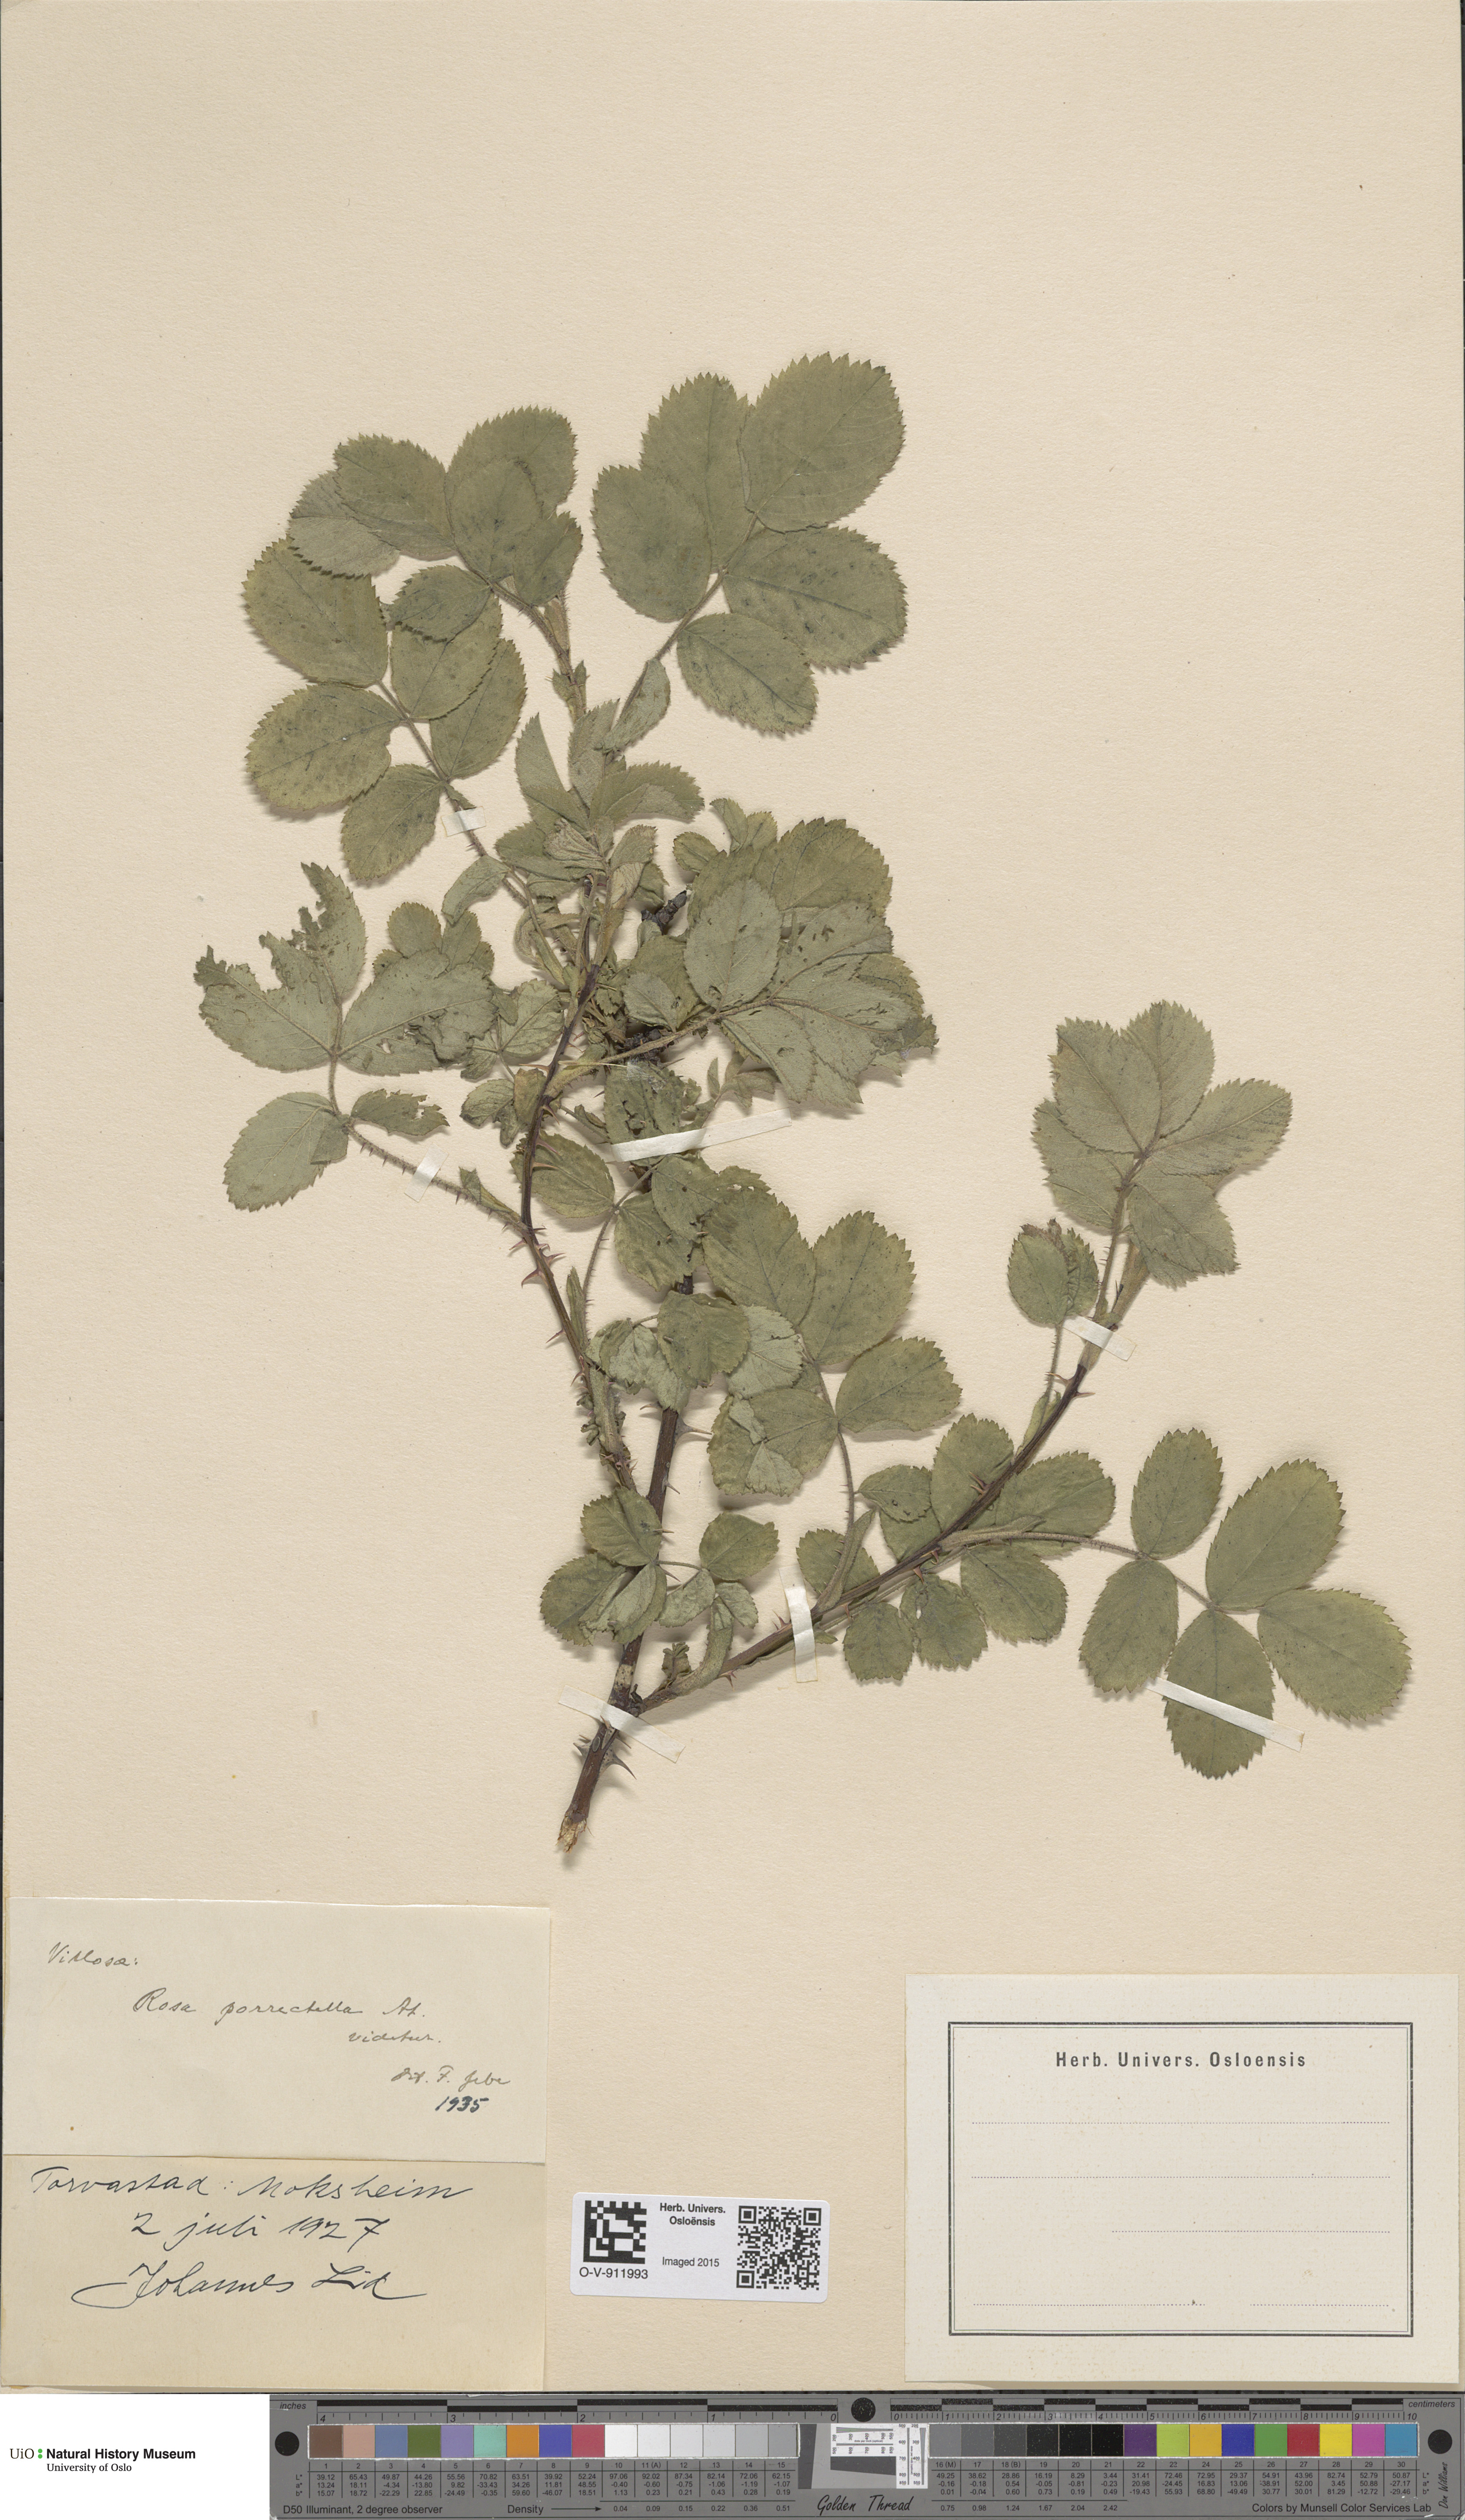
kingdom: Plantae
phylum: Tracheophyta
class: Magnoliopsida
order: Rosales
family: Rosaceae
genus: Rosa
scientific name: Rosa mollis
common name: Rose
